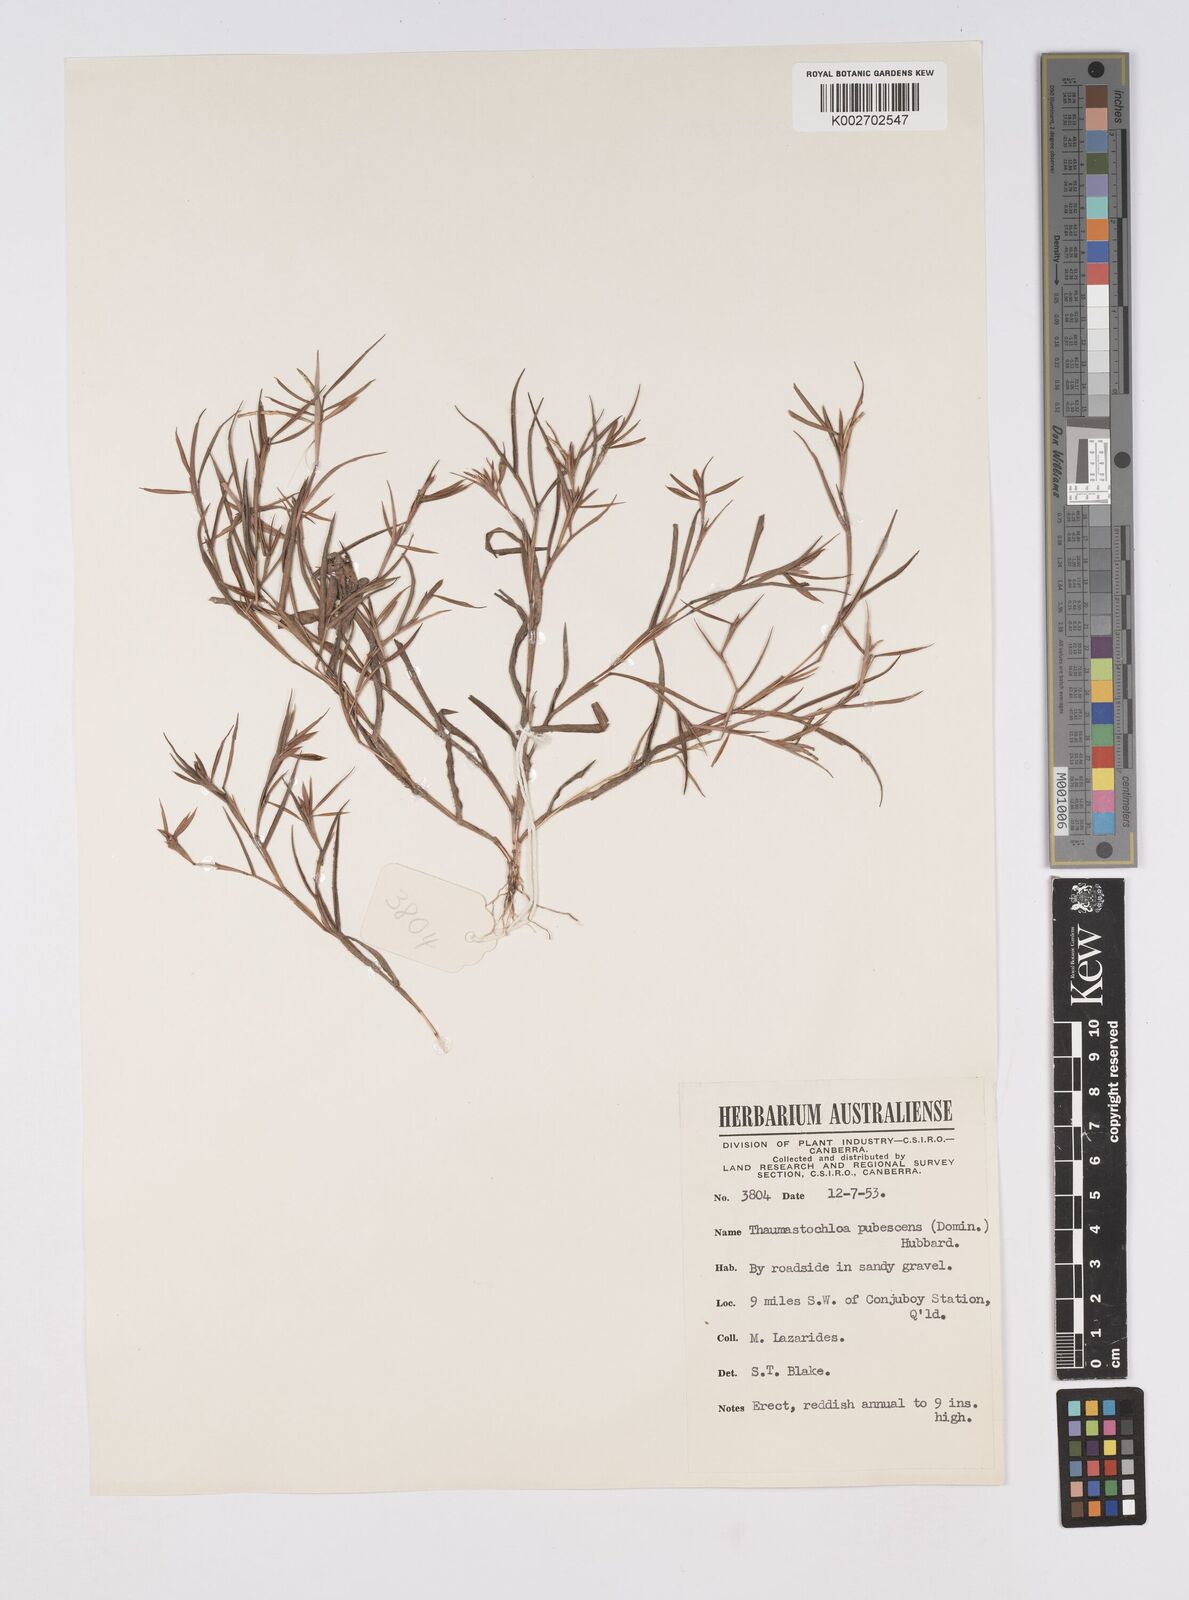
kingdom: Plantae
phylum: Tracheophyta
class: Liliopsida
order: Poales
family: Poaceae
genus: Thaumastochloa
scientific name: Thaumastochloa pubescens
